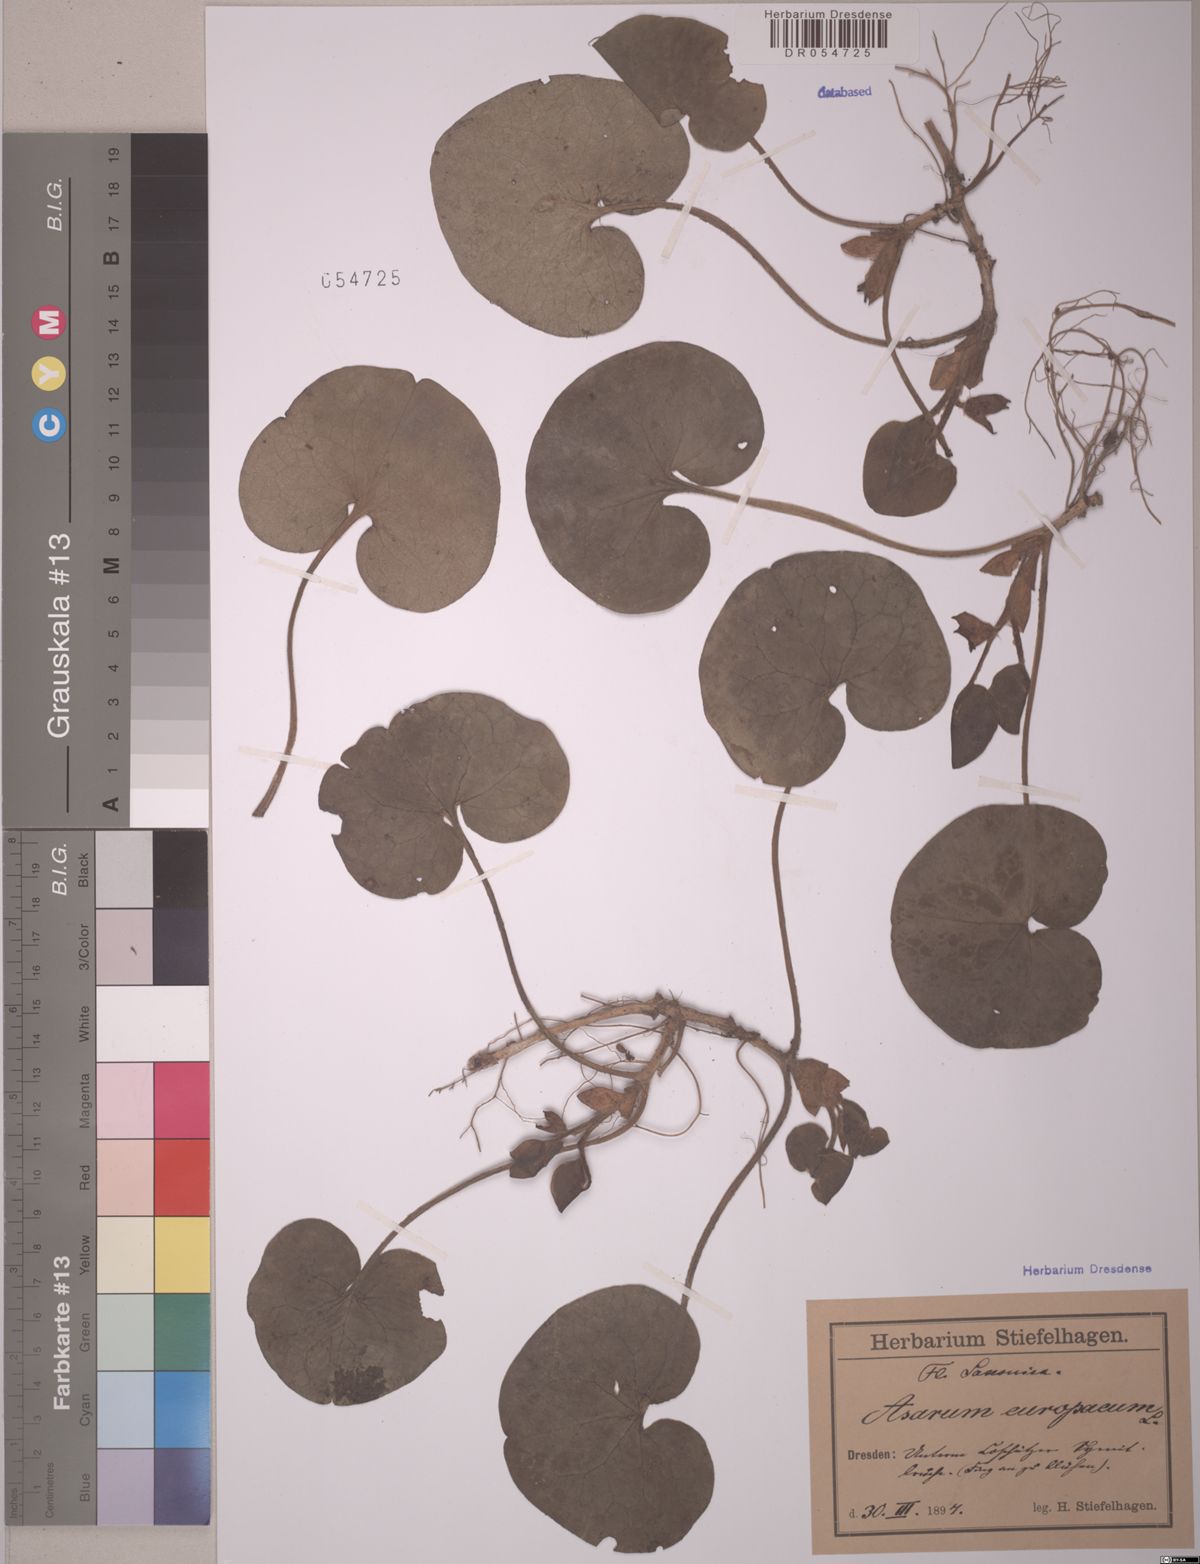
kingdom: Plantae
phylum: Tracheophyta
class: Magnoliopsida
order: Piperales
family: Aristolochiaceae
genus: Asarum
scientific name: Asarum europaeum
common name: Asarabacca
